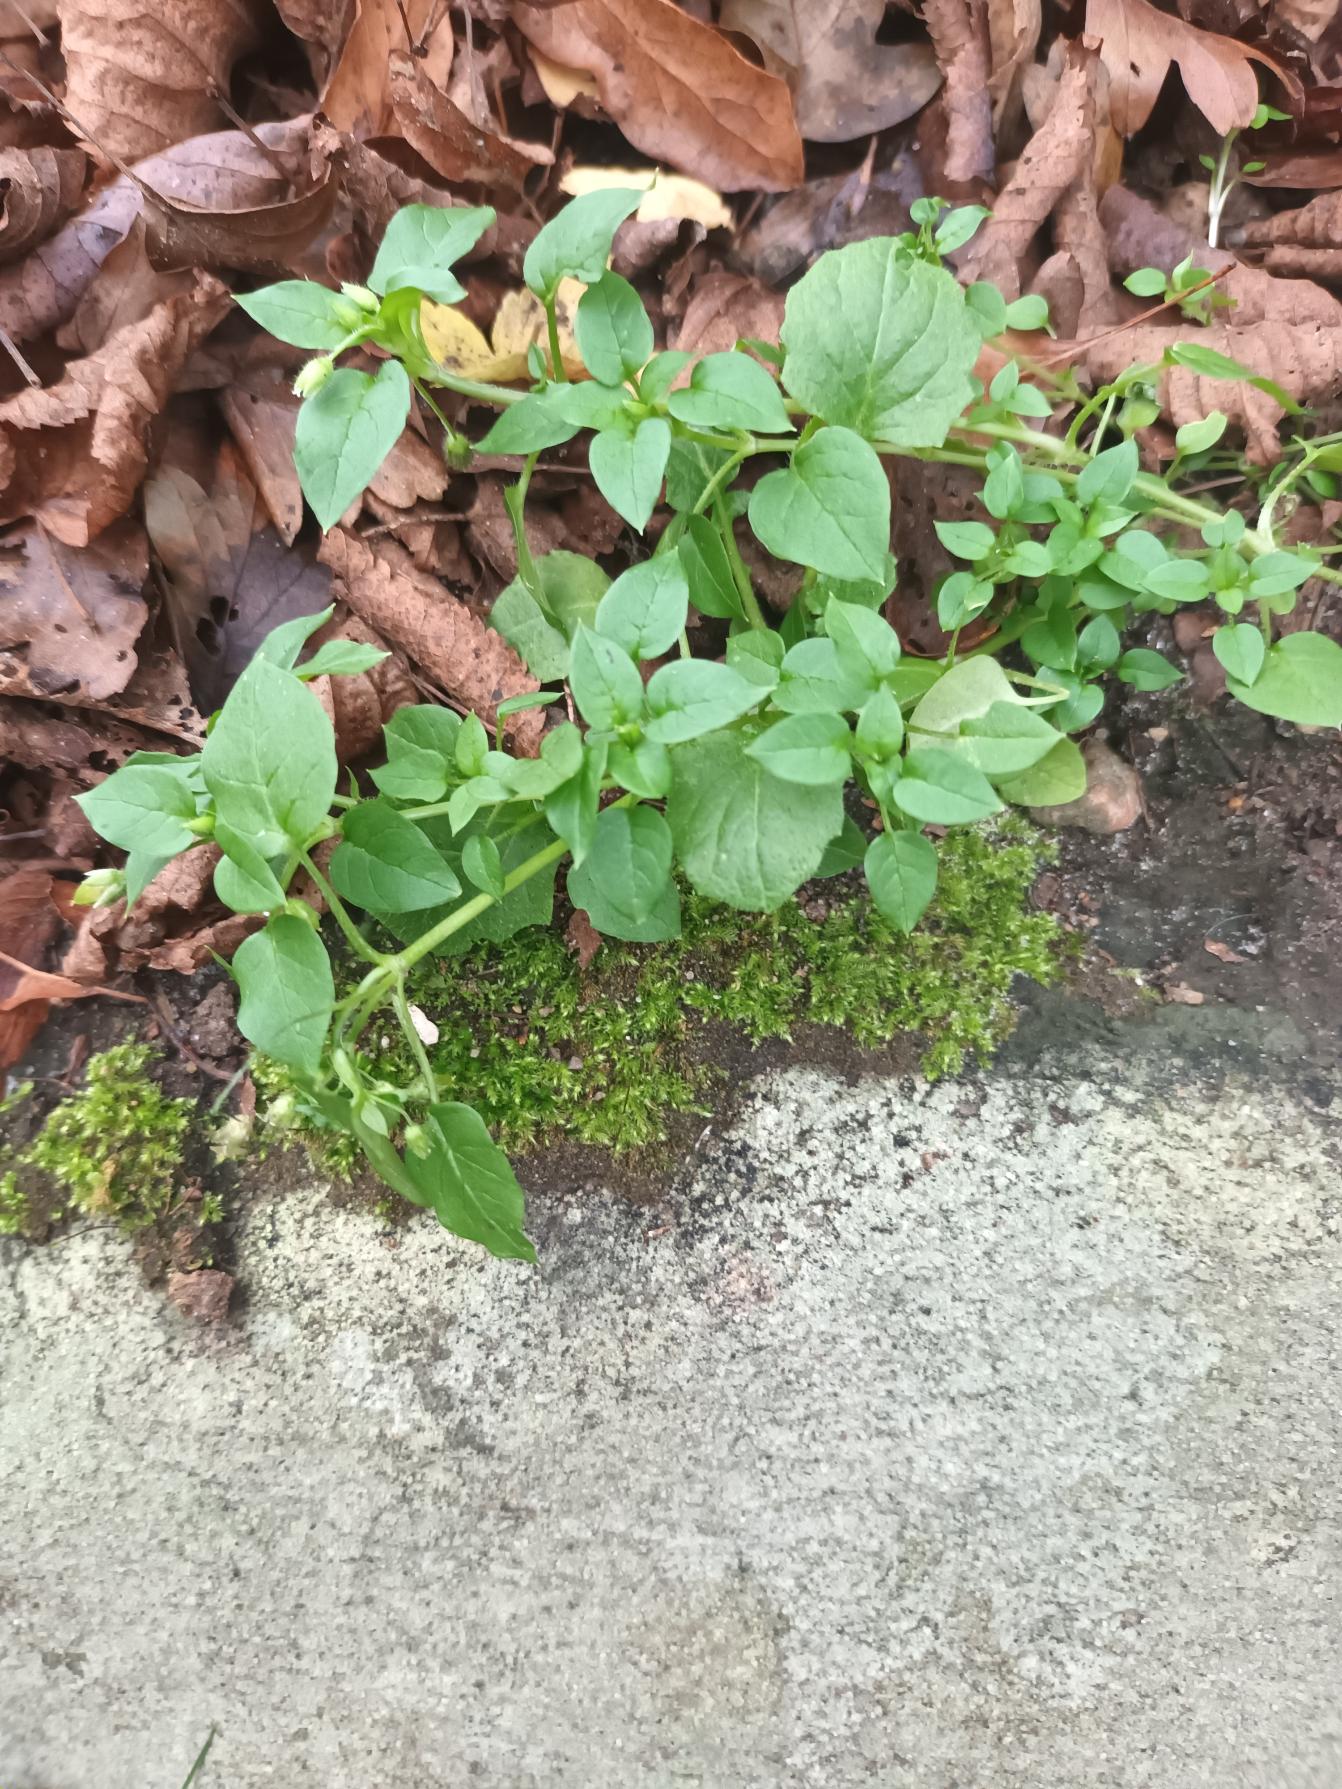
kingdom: Plantae
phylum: Tracheophyta
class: Magnoliopsida
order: Caryophyllales
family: Caryophyllaceae
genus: Stellaria
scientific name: Stellaria media
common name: Almindelig fuglegræs
